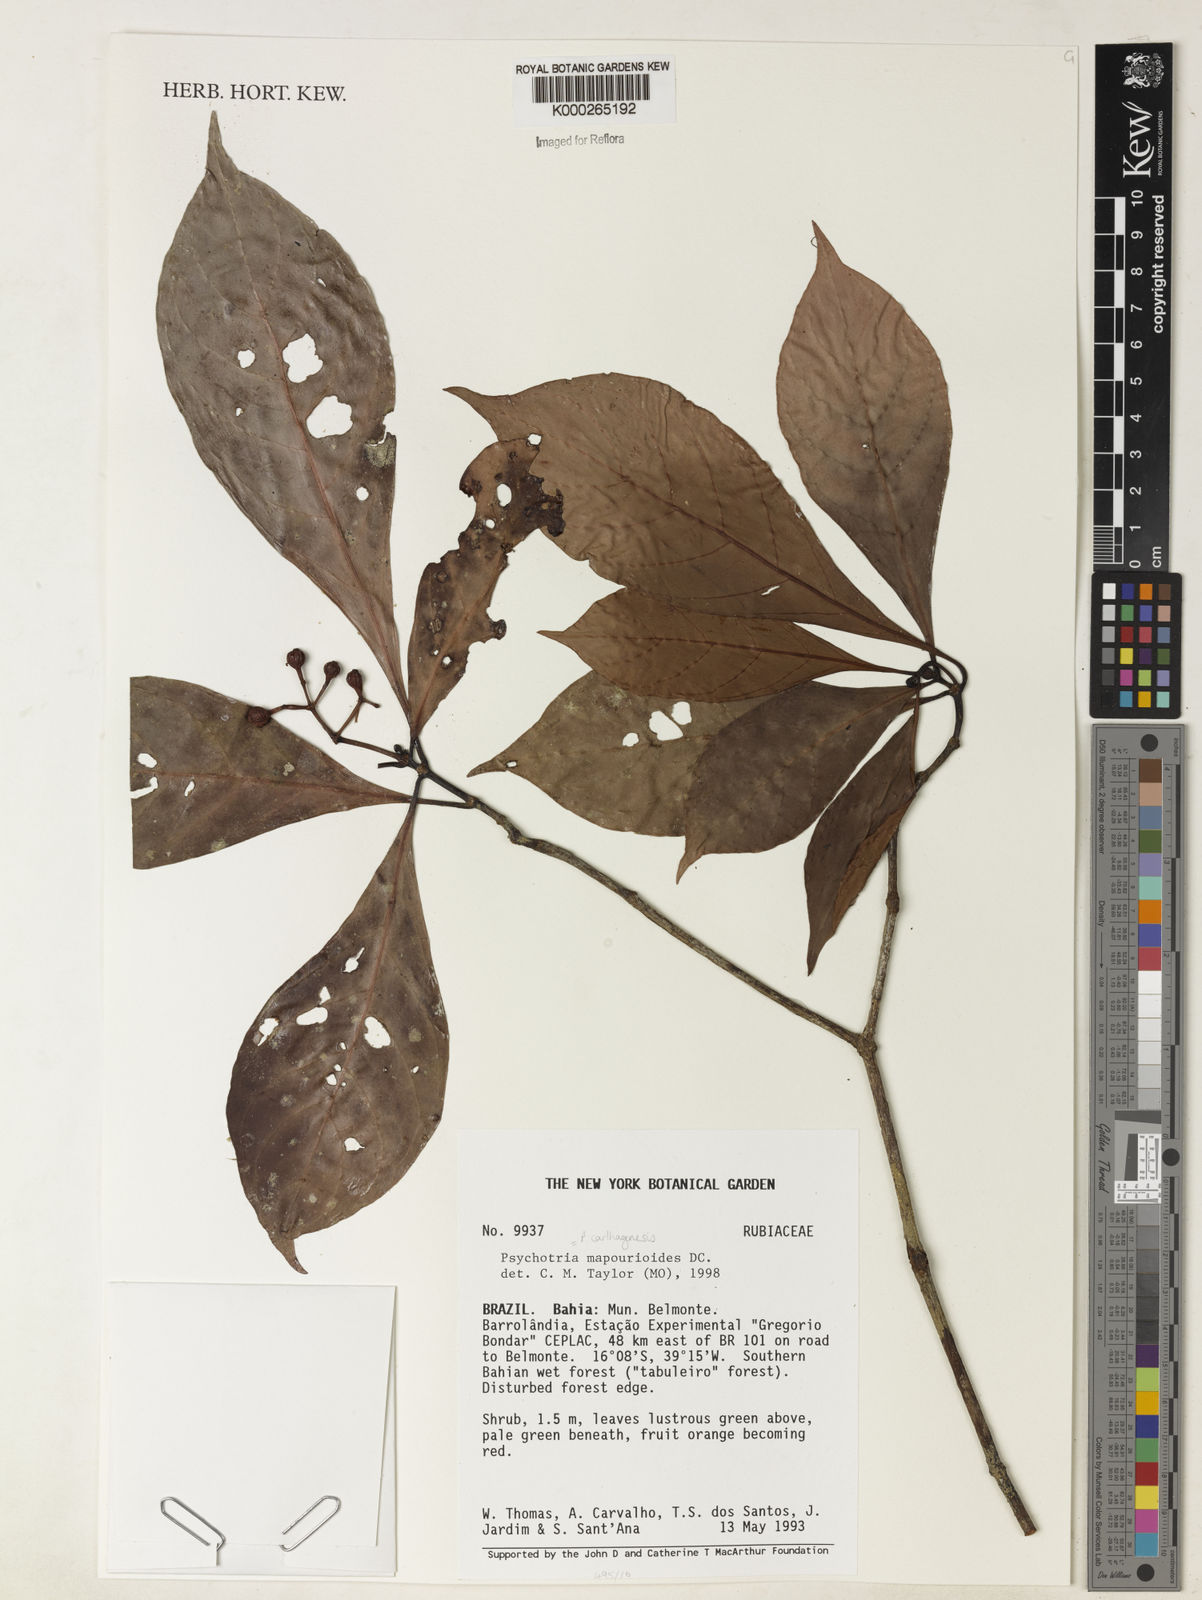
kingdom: Plantae
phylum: Tracheophyta
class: Magnoliopsida
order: Gentianales
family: Rubiaceae
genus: Psychotria
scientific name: Psychotria pedunculosa
